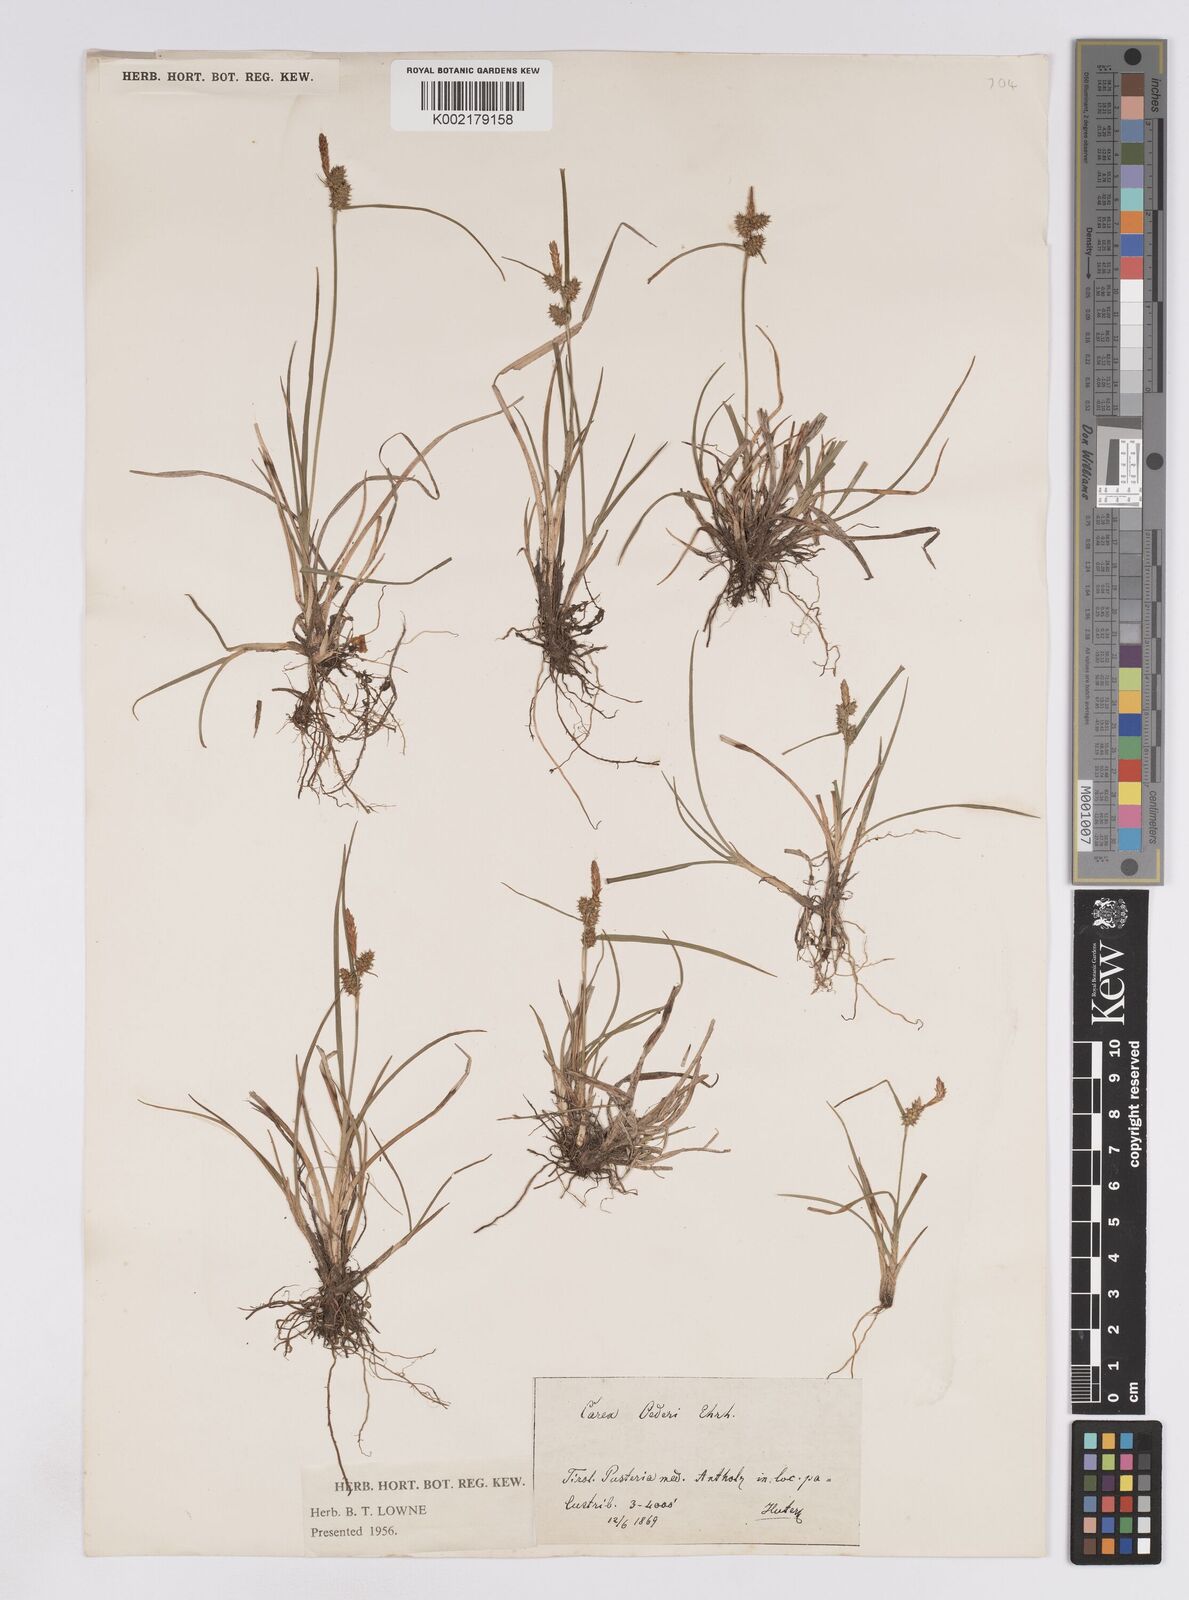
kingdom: Plantae
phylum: Tracheophyta
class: Liliopsida
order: Poales
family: Cyperaceae
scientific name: Cyperaceae
